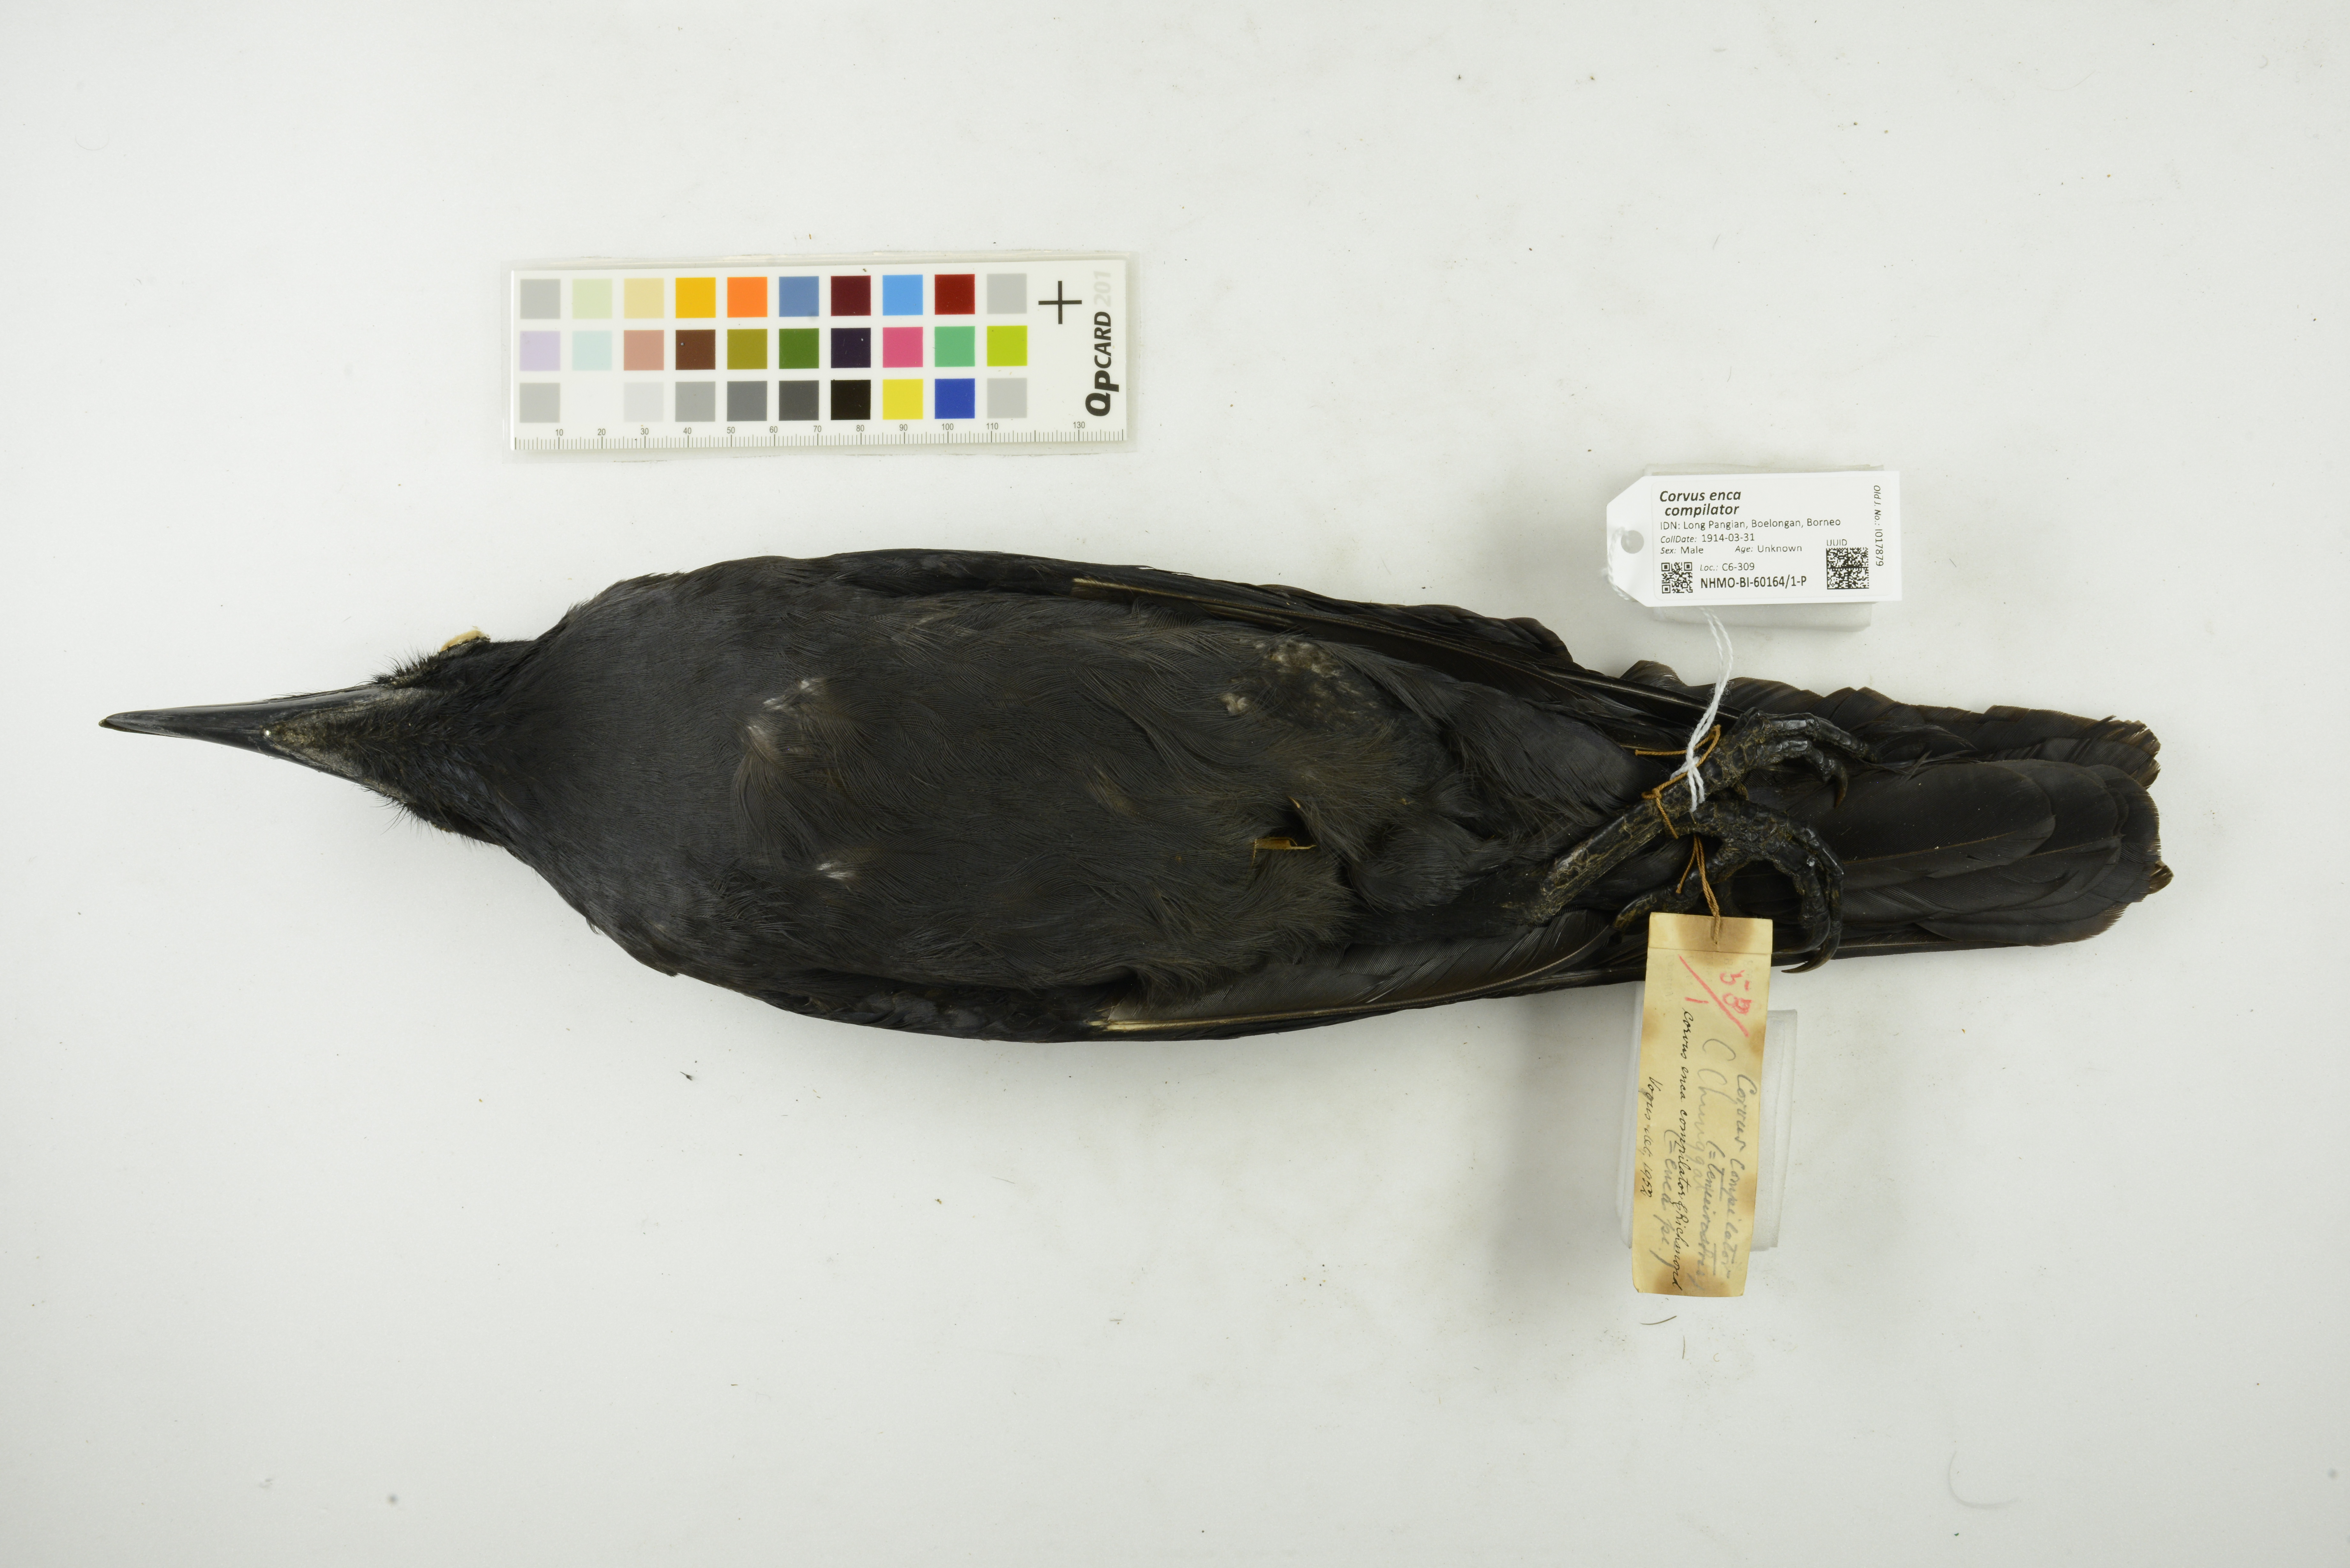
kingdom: Animalia
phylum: Chordata
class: Aves
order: Passeriformes
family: Corvidae
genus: Corvus
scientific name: Corvus enca
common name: Slender-billed crow
